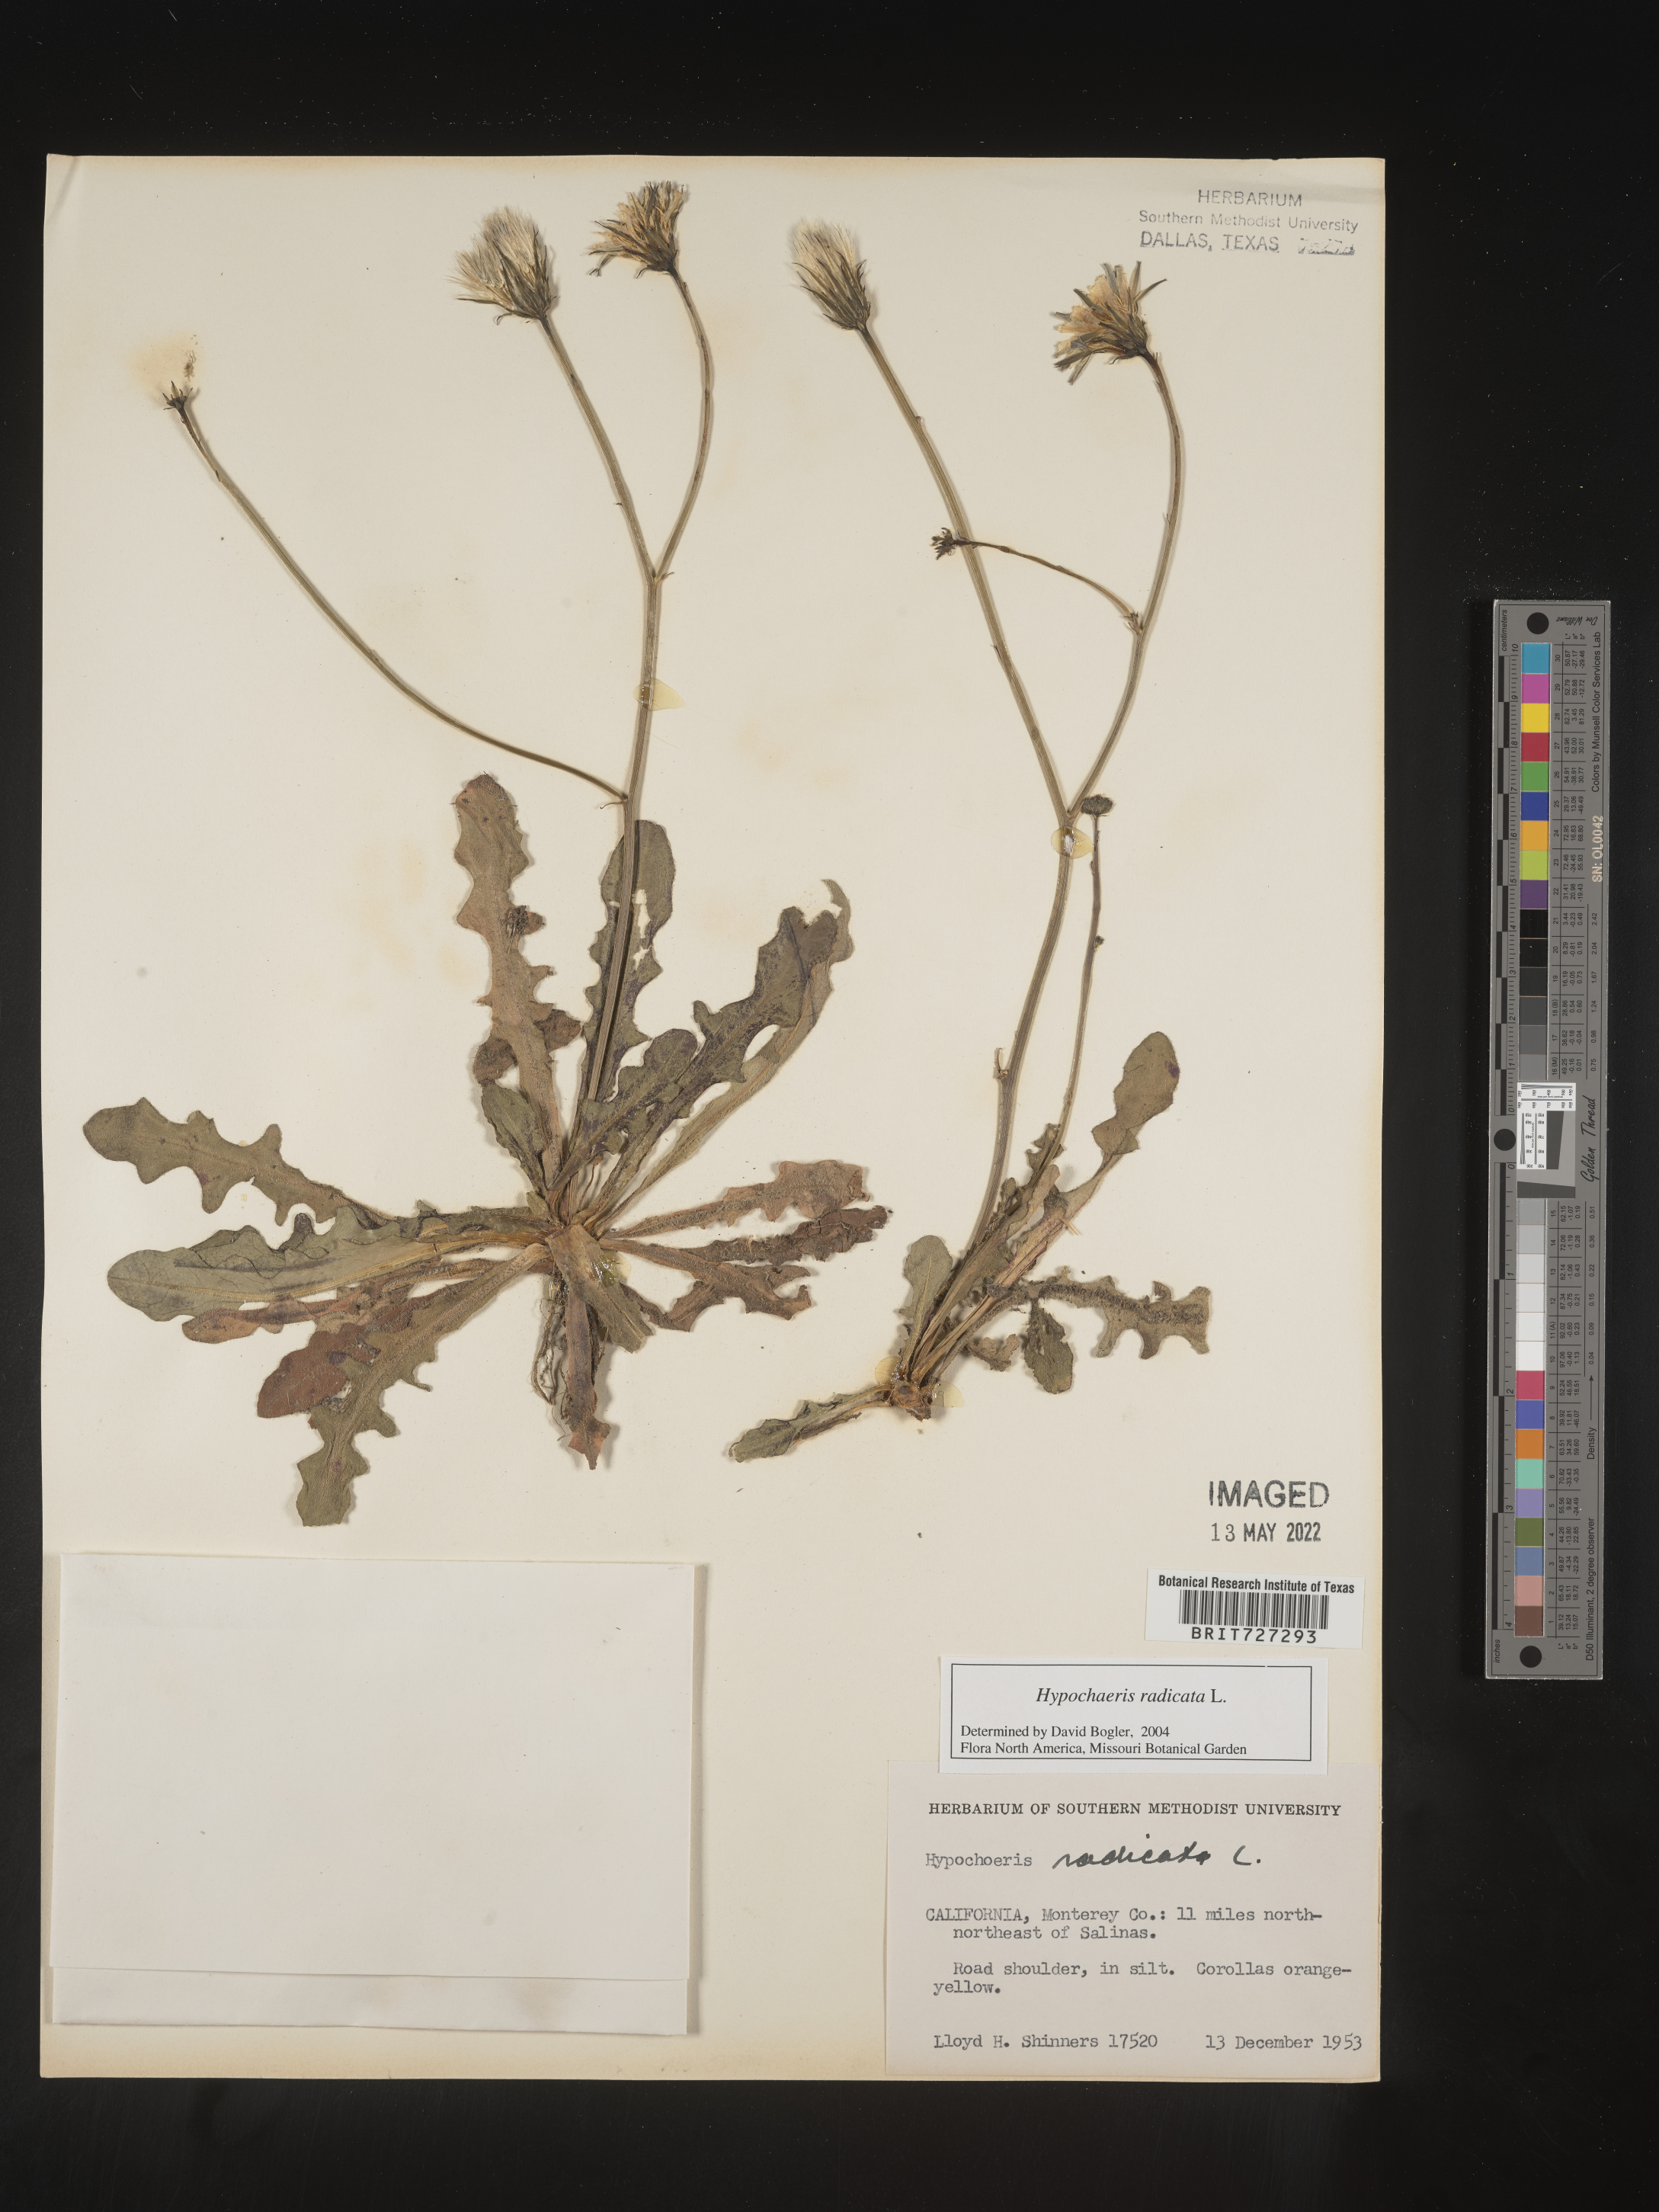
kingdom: Plantae
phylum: Tracheophyta
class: Magnoliopsida
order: Asterales
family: Asteraceae
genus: Hypochaeris
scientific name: Hypochaeris radicata
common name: Flatweed
